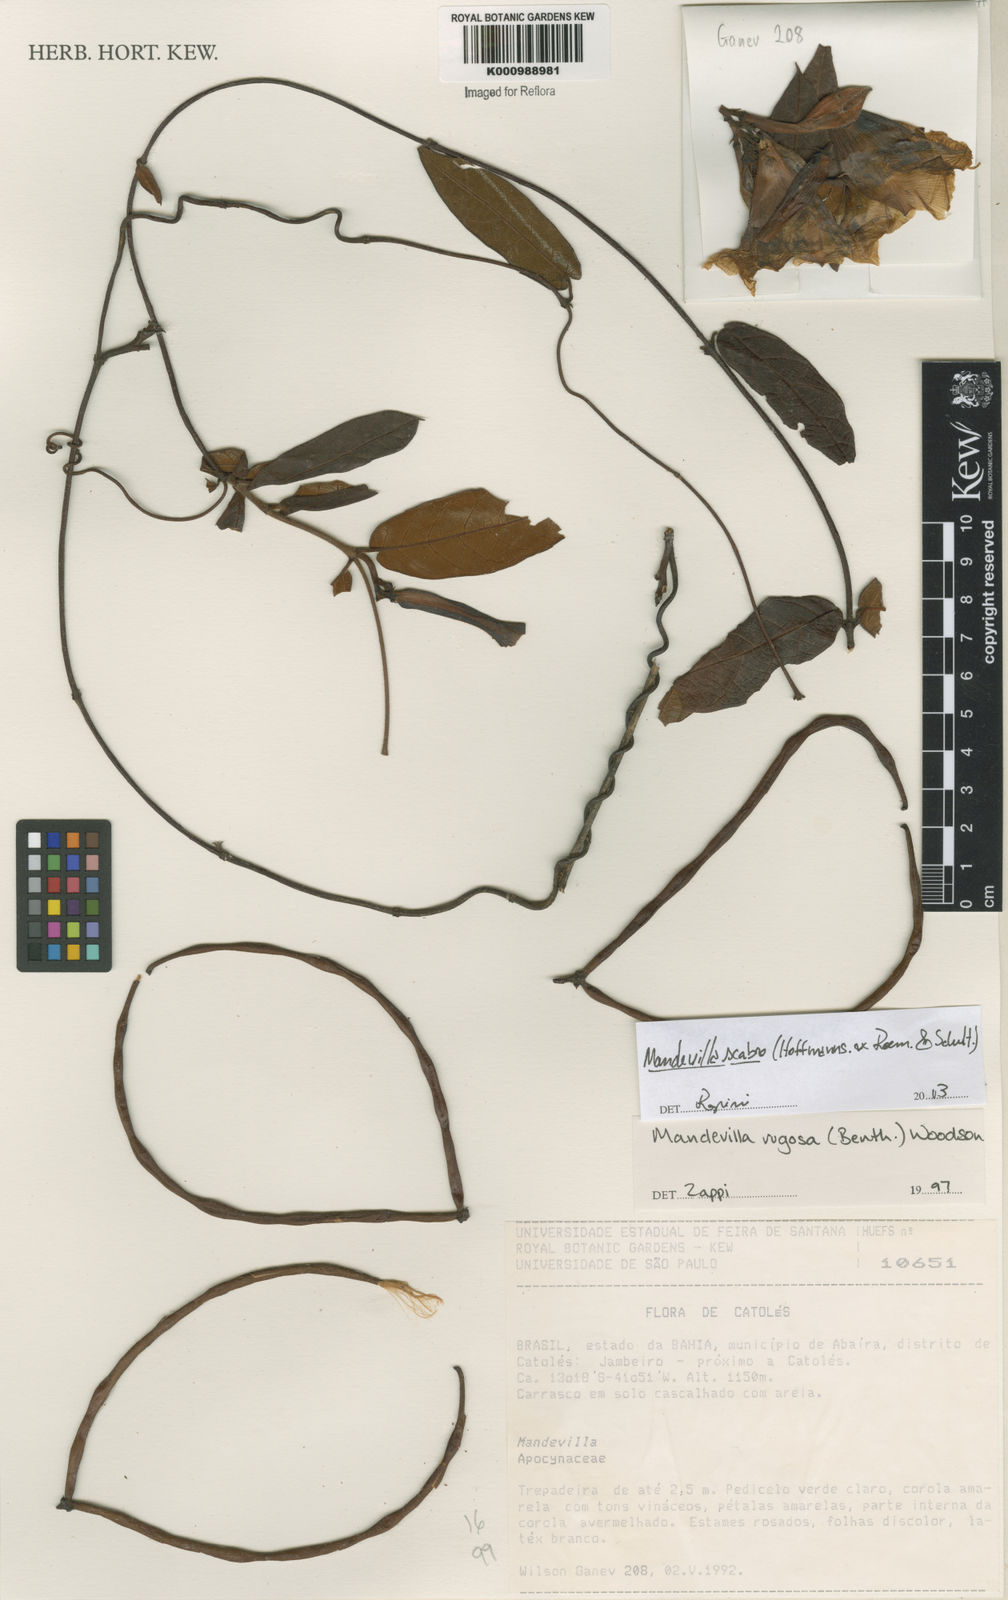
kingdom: Plantae
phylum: Tracheophyta
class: Magnoliopsida
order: Gentianales
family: Apocynaceae
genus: Mandevilla
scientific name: Mandevilla rugosa
